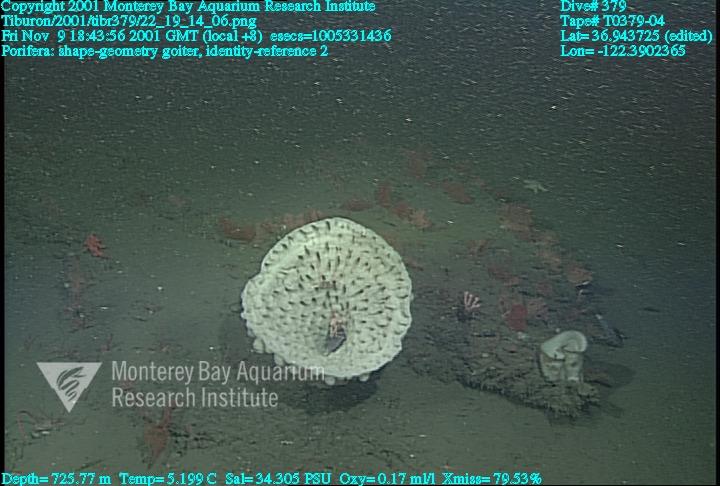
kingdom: Animalia
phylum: Porifera
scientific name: Porifera
